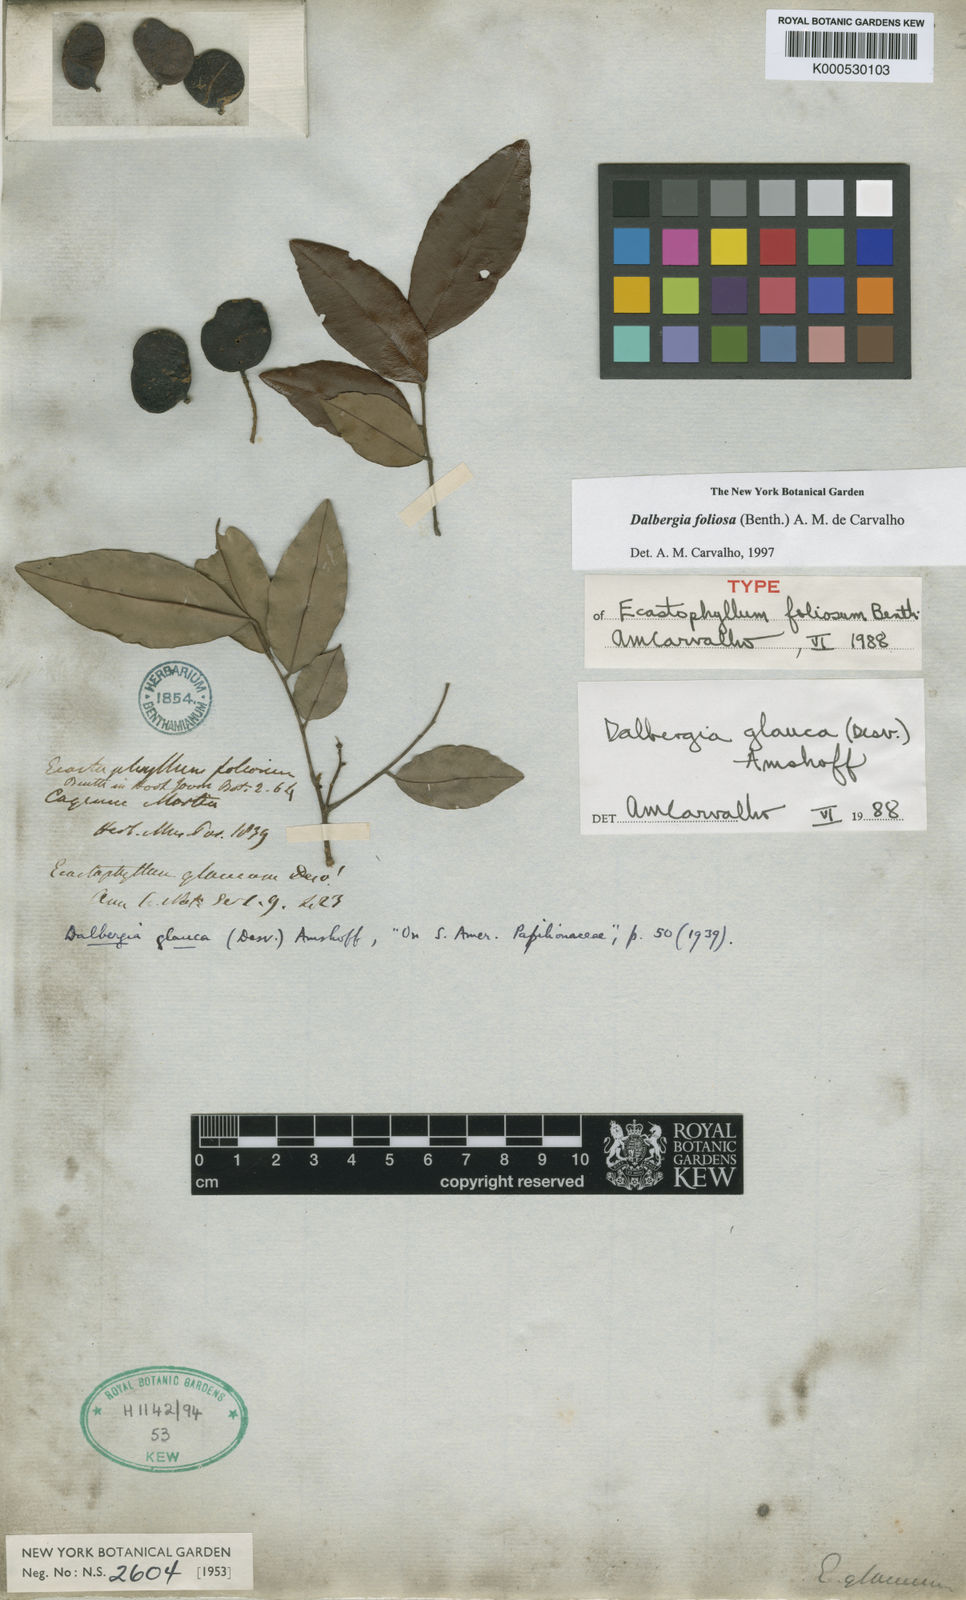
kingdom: Plantae
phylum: Tracheophyta
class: Magnoliopsida
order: Fabales
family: Fabaceae
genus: Dalbergia
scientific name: Dalbergia
